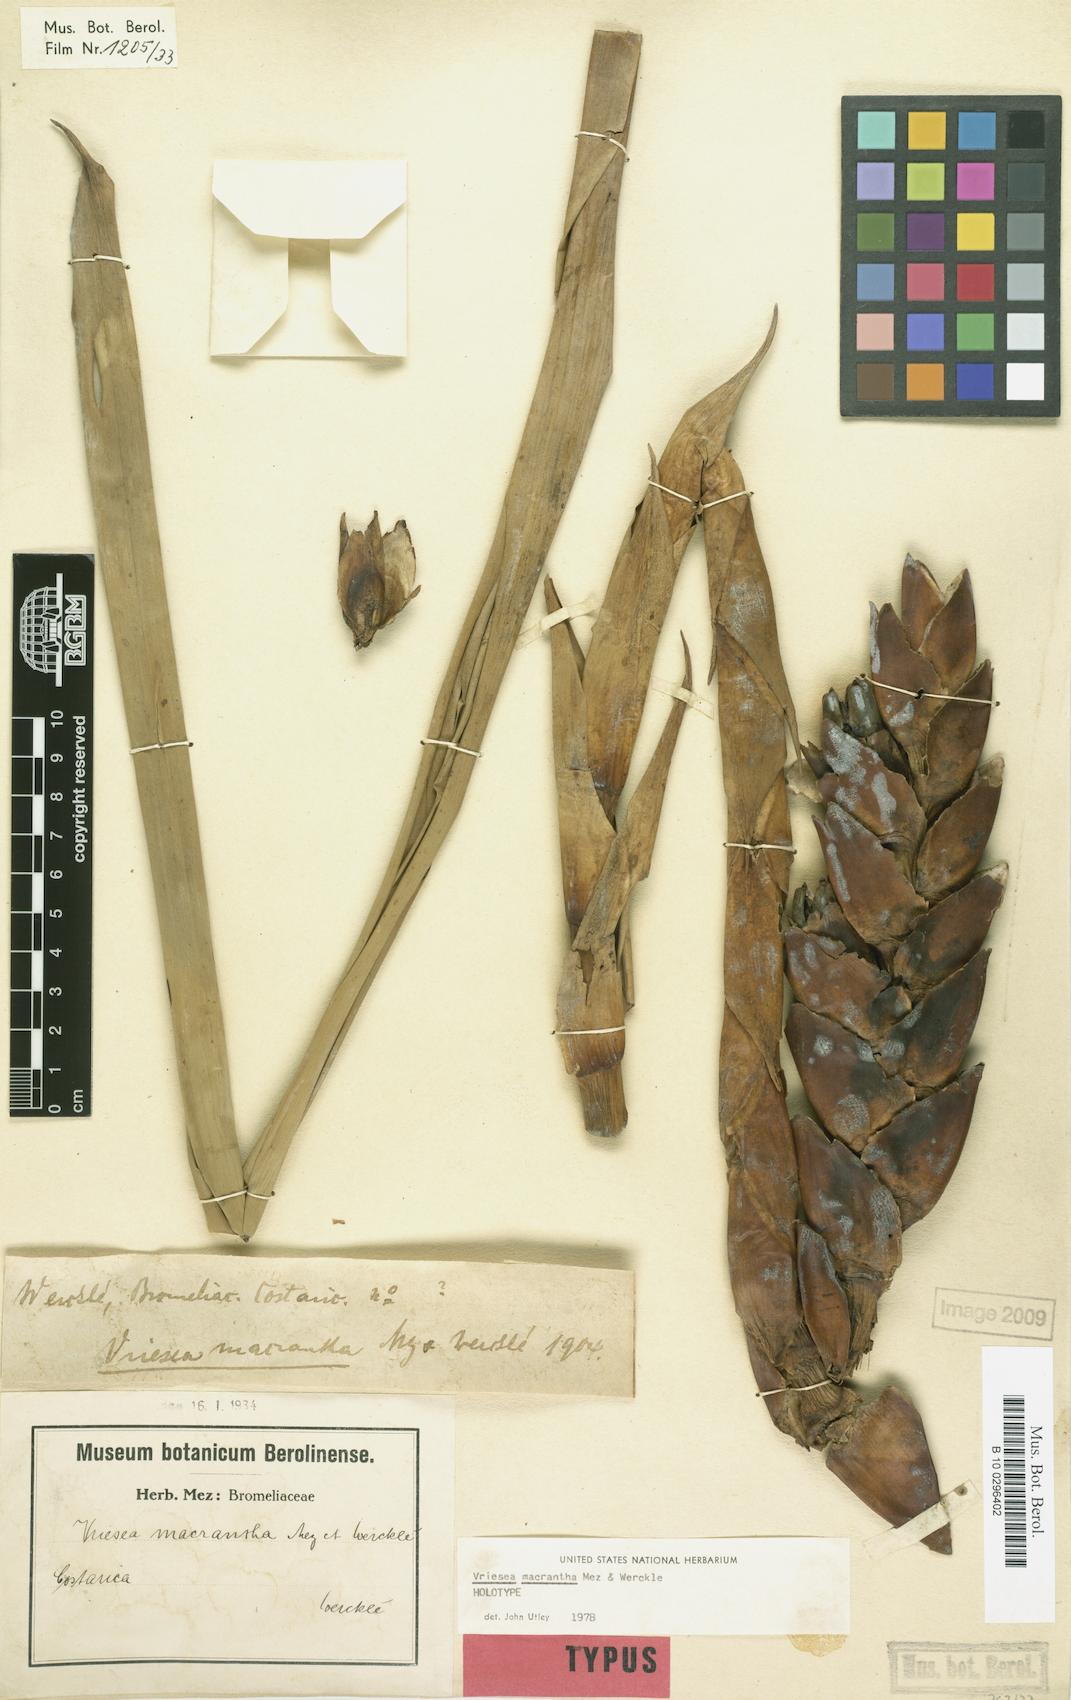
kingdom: Plantae
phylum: Tracheophyta
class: Liliopsida
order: Poales
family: Bromeliaceae
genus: Werauhia
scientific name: Werauhia macrantha
